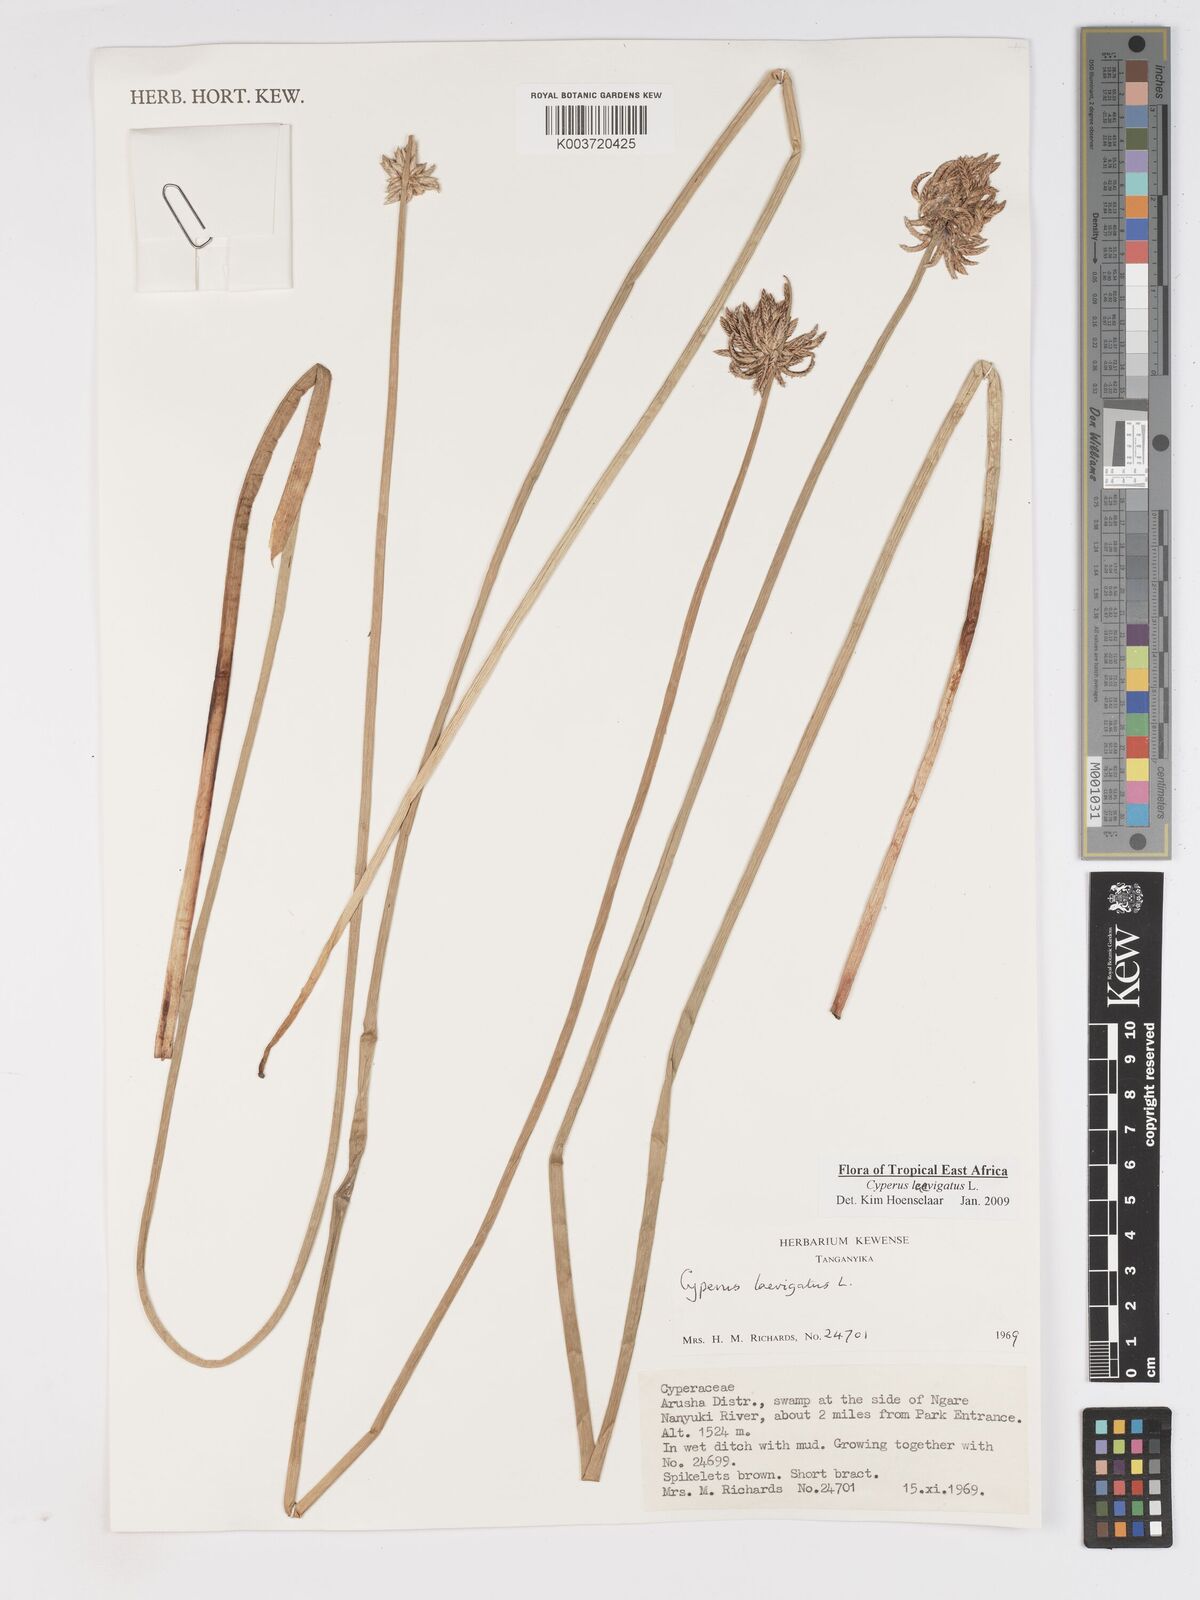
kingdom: Plantae
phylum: Tracheophyta
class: Liliopsida
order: Poales
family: Cyperaceae
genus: Cyperus
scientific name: Cyperus laevigatus
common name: Smooth flat sedge
